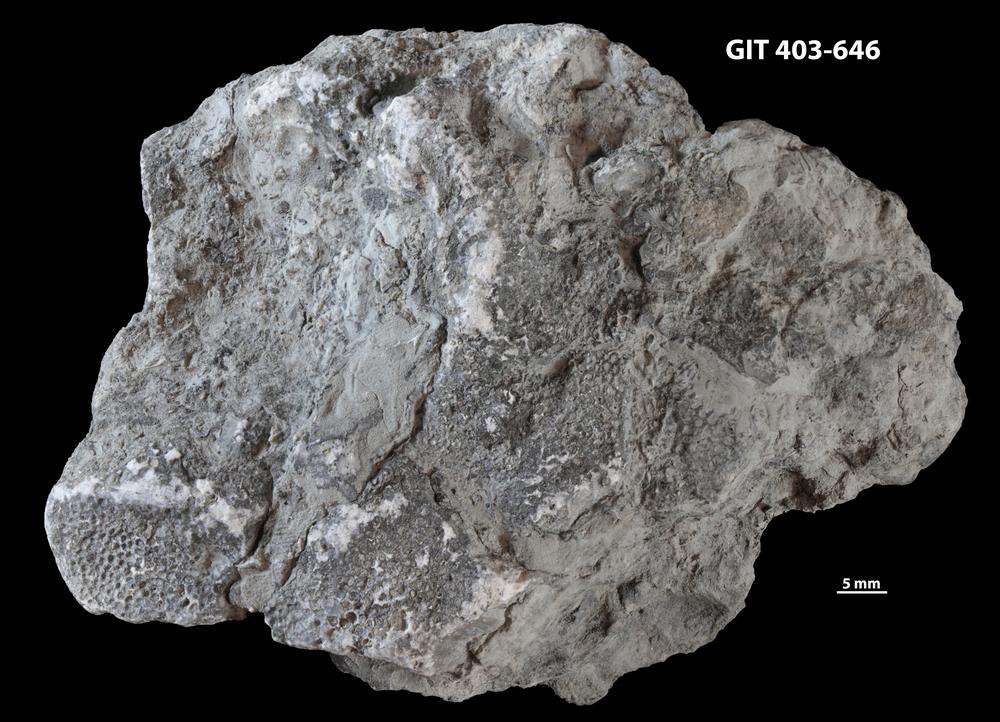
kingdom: Animalia
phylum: Cnidaria
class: Anthozoa
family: Favositidae
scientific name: Favositidae
